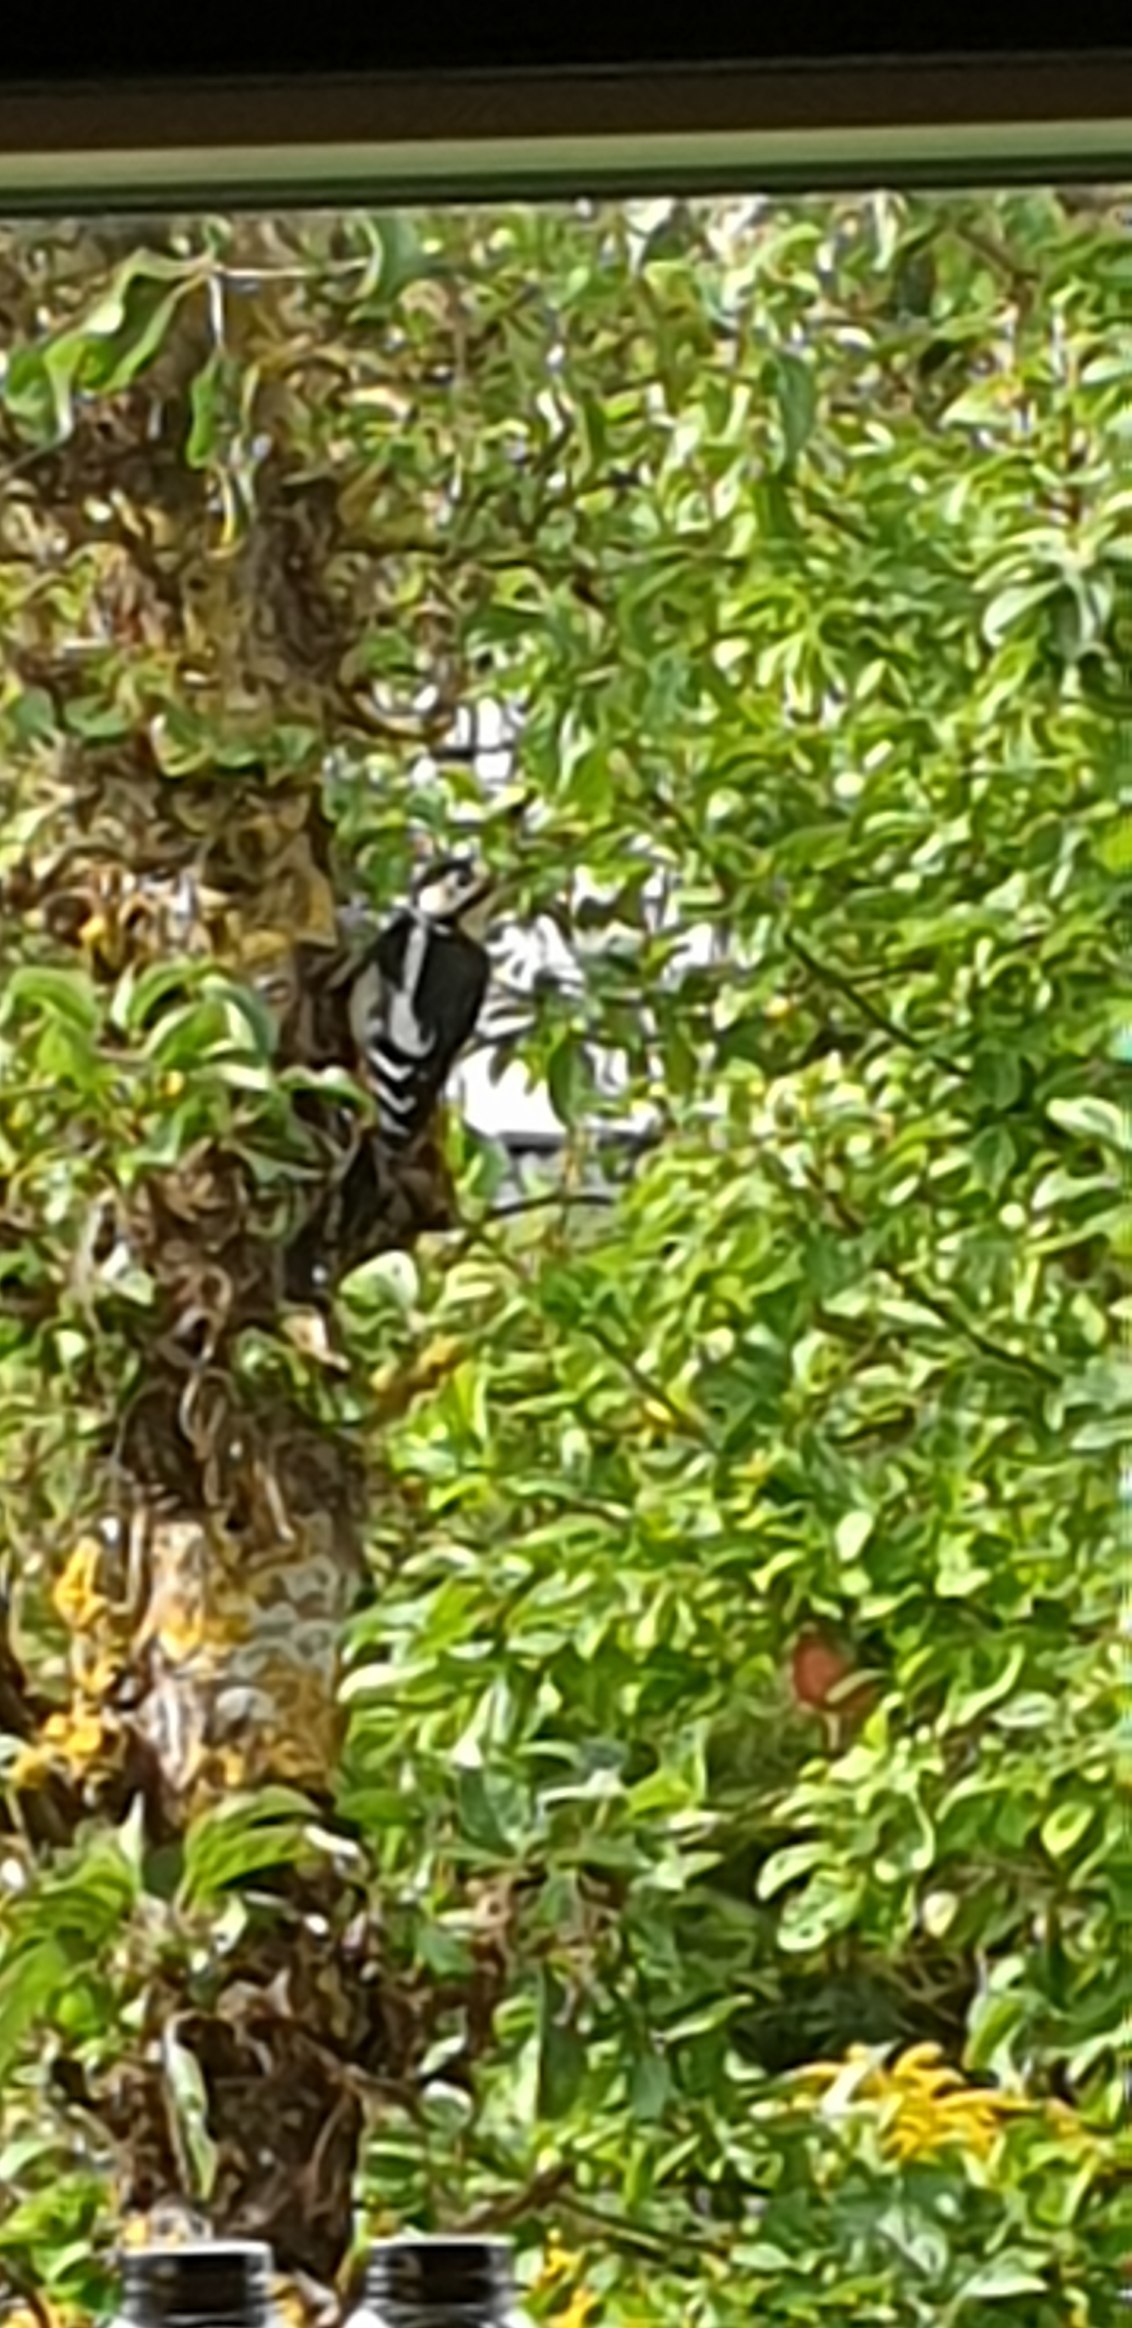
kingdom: Animalia
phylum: Chordata
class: Aves
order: Piciformes
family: Picidae
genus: Dendrocopos
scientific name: Dendrocopos major
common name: Stor flagspætte
